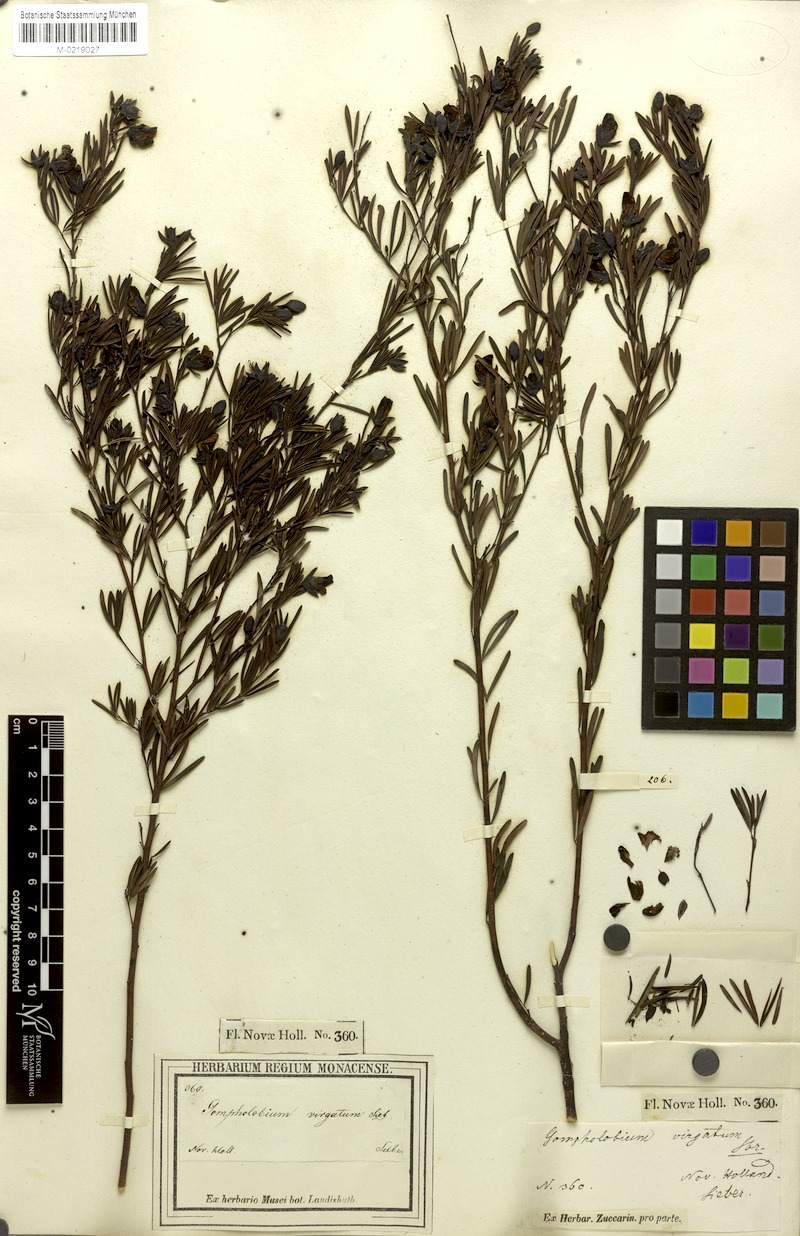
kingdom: Plantae
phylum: Tracheophyta
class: Magnoliopsida
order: Fabales
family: Fabaceae
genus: Gompholobium
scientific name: Gompholobium virgatum
